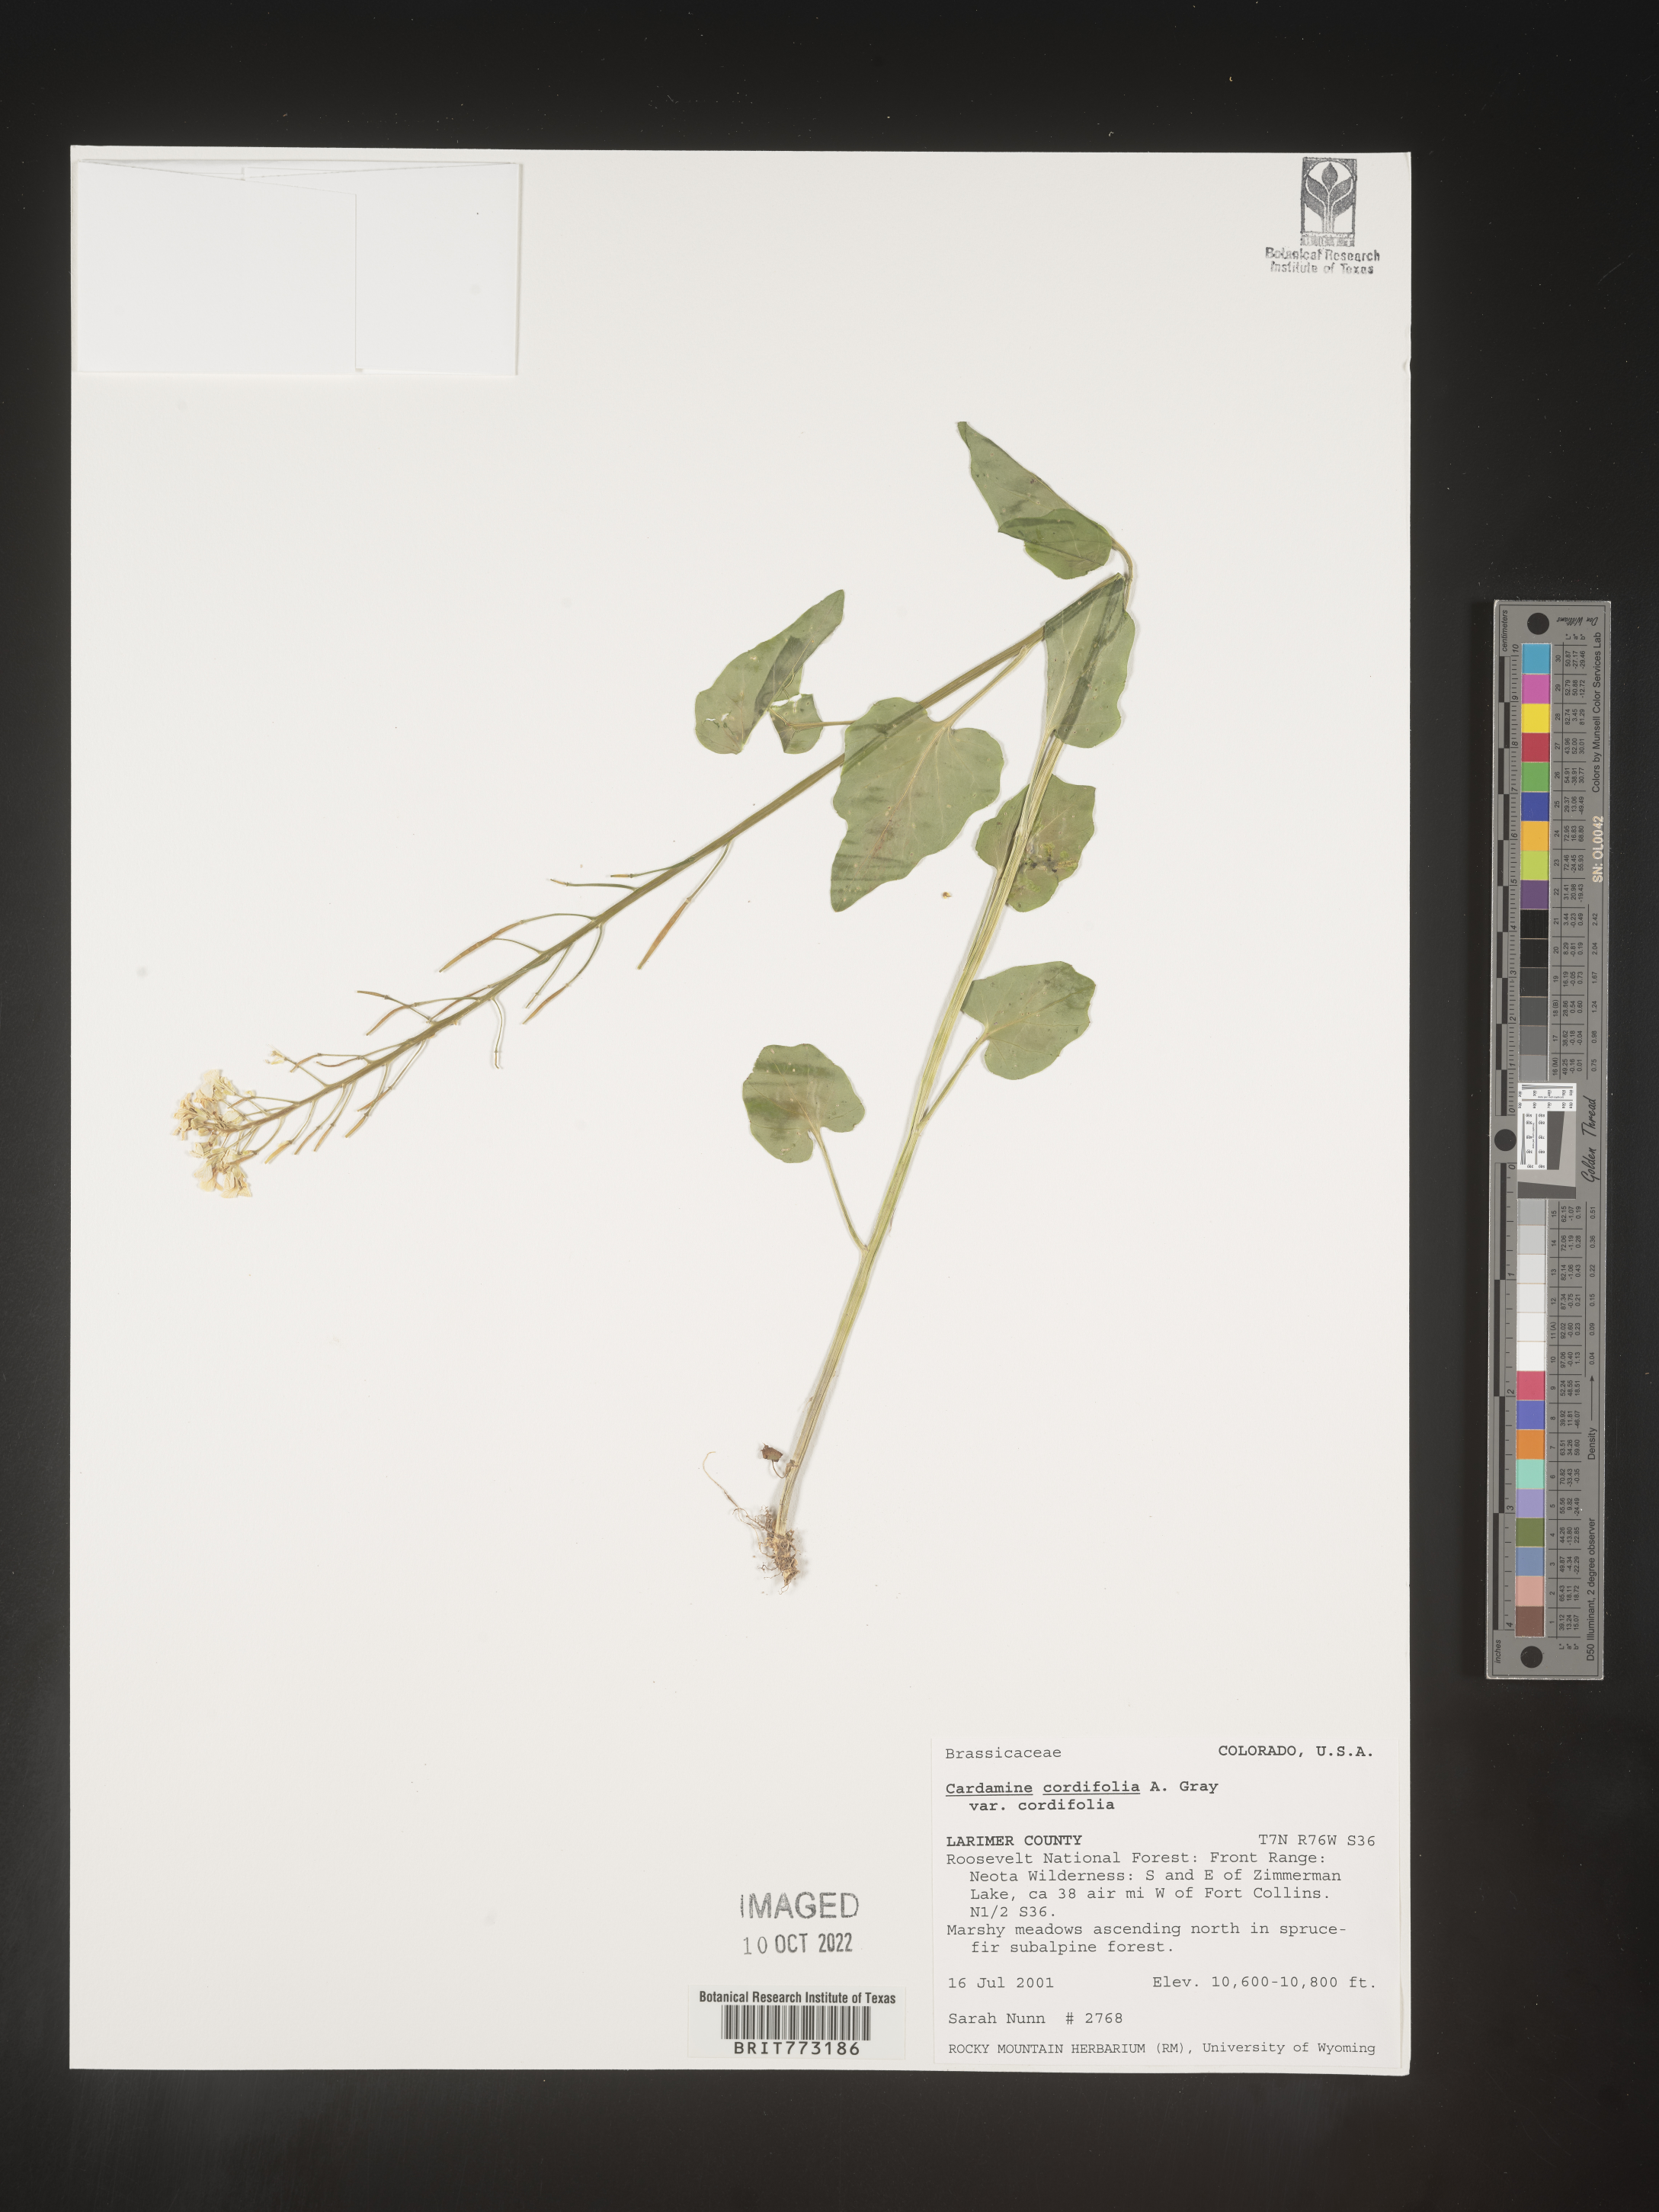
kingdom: Plantae
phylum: Tracheophyta
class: Magnoliopsida
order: Brassicales
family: Brassicaceae
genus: Cardamine
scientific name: Cardamine
